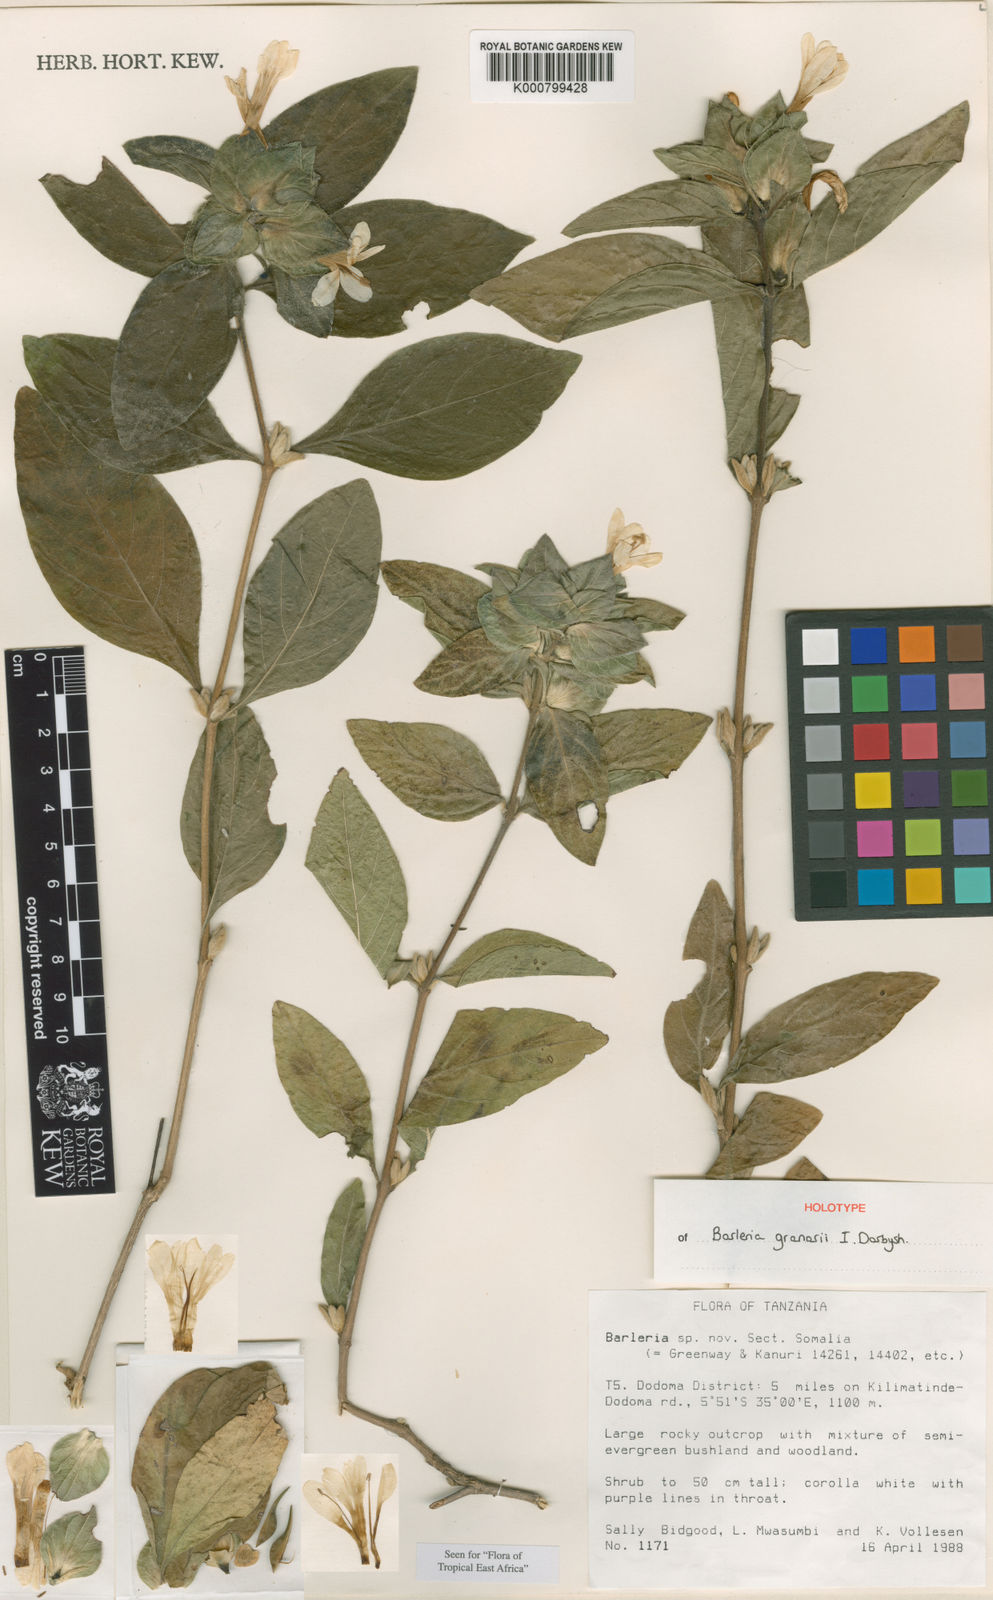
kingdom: Plantae
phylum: Tracheophyta
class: Magnoliopsida
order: Lamiales
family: Acanthaceae
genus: Barleria
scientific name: Barleria granarii
